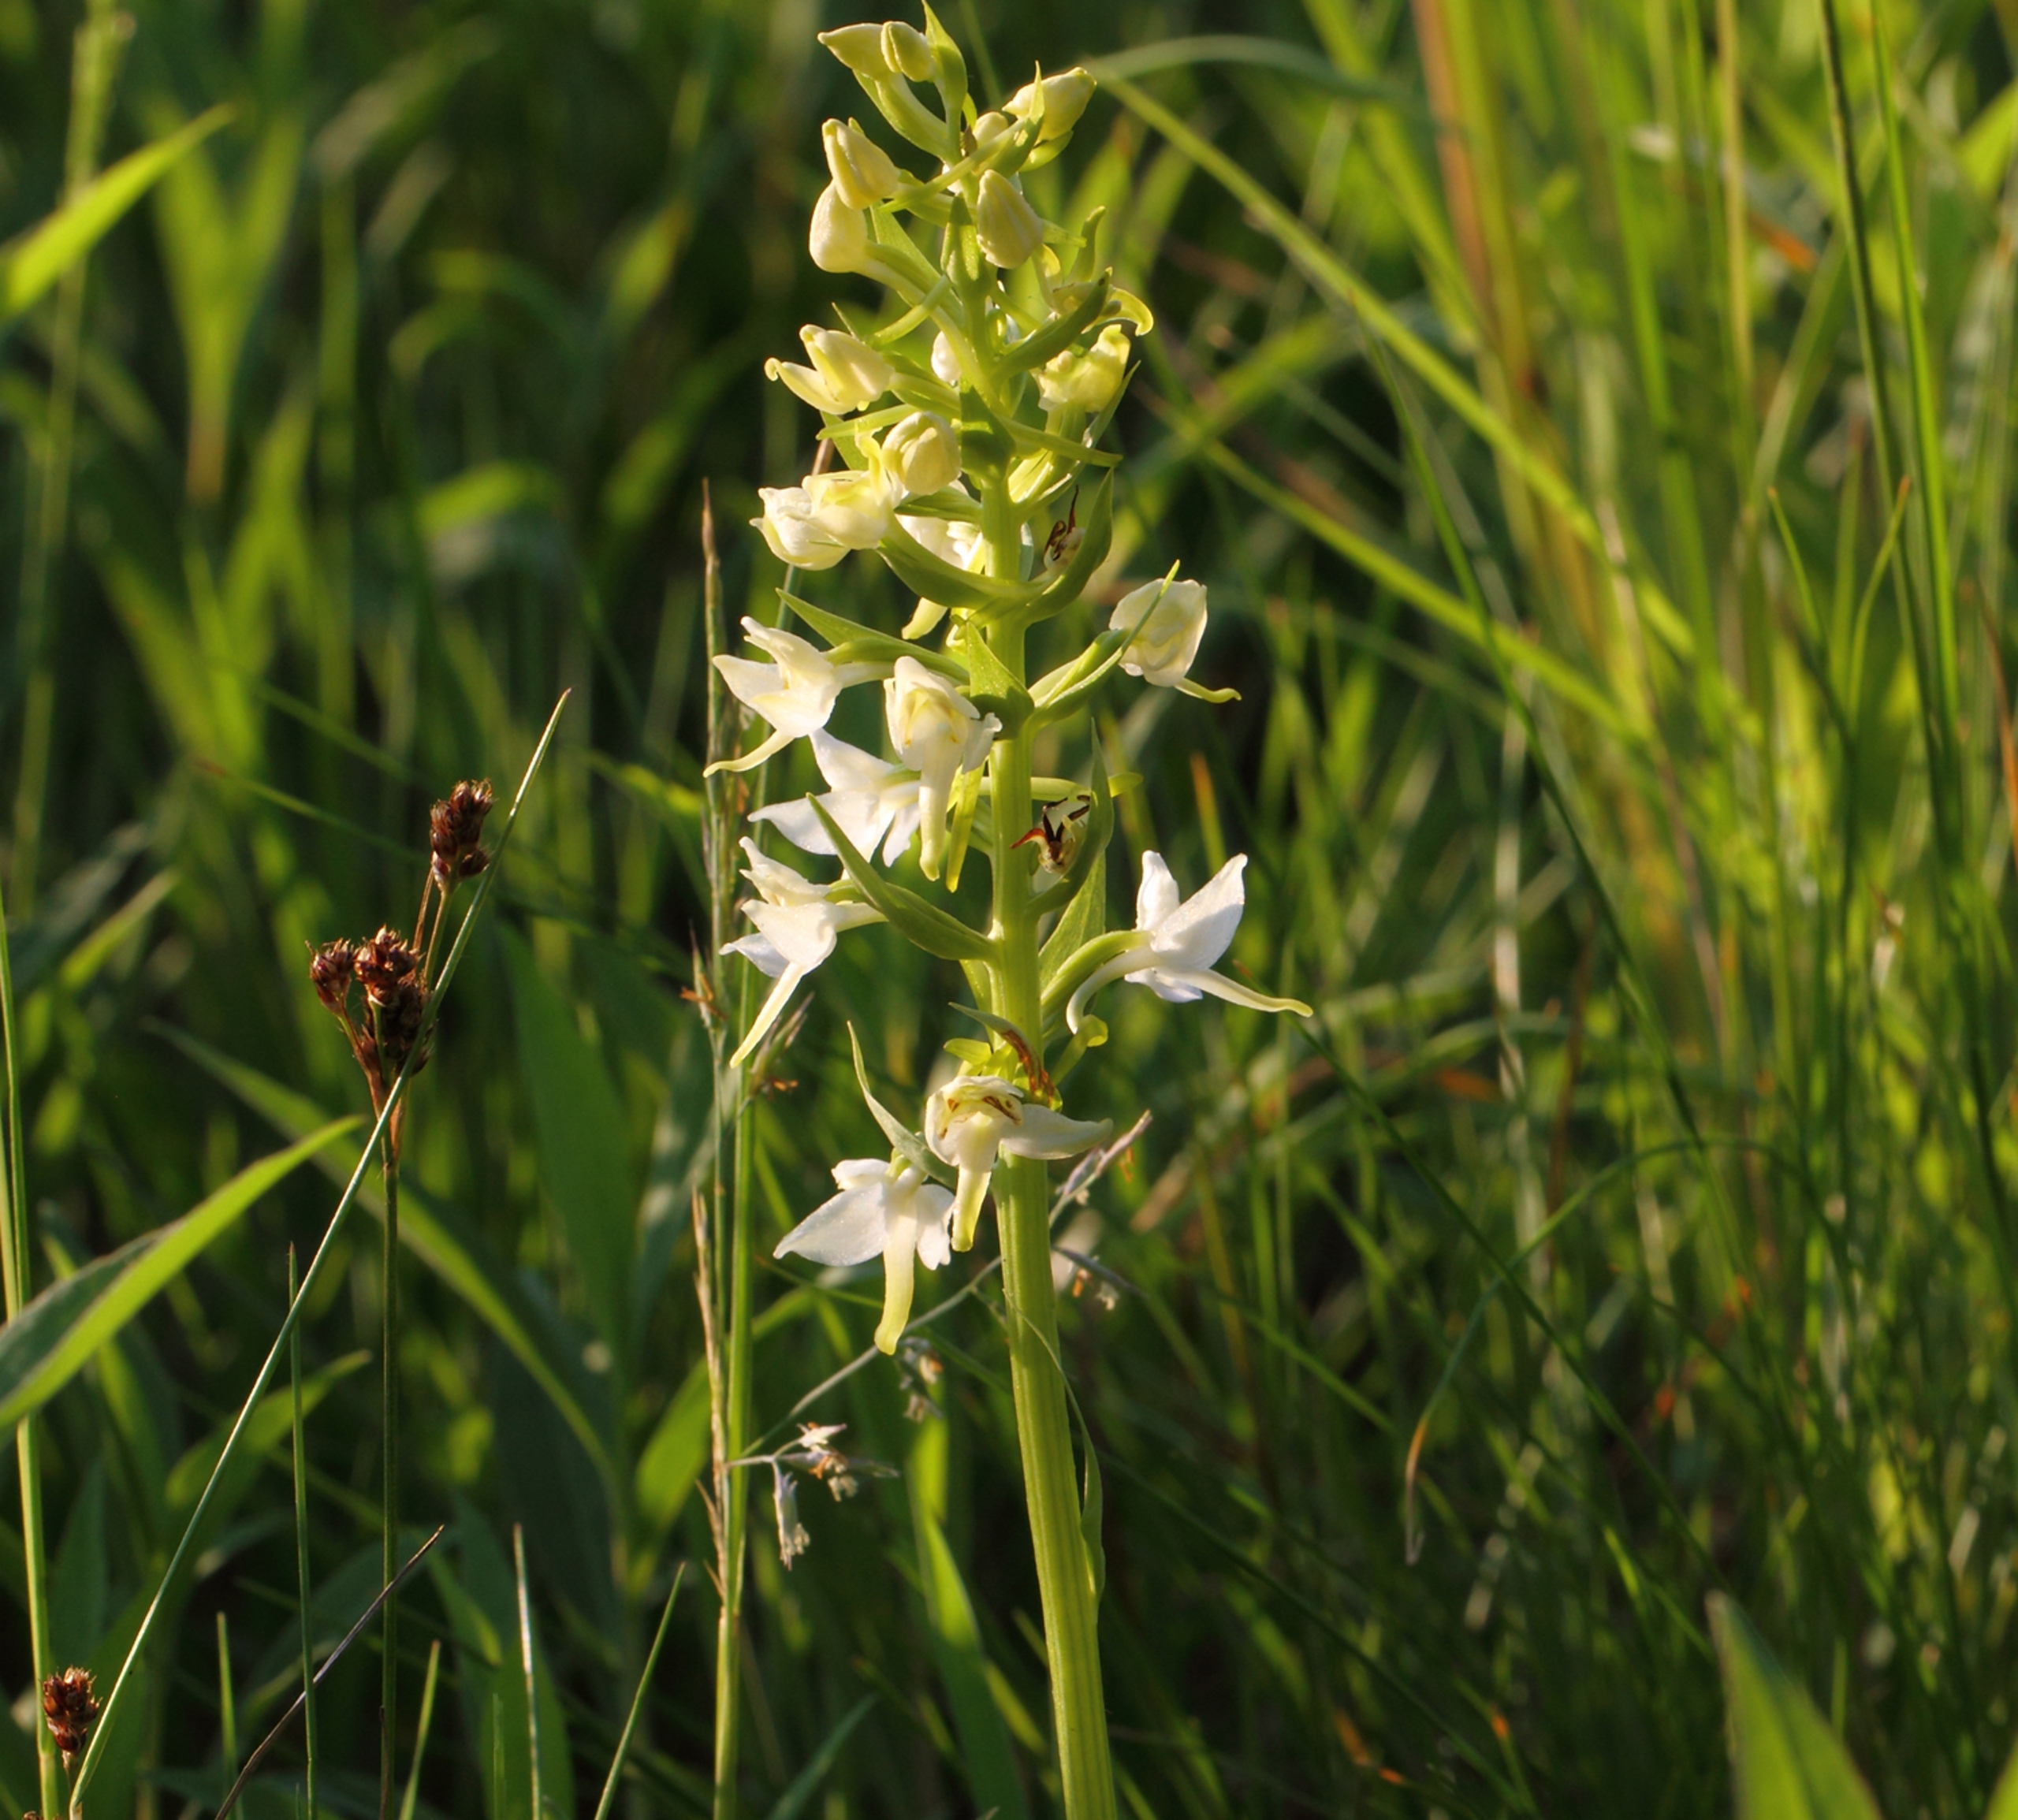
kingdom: Plantae
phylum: Tracheophyta
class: Liliopsida
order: Asparagales
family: Orchidaceae
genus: Platanthera
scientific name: Platanthera chlorantha
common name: Skov-gøgelilje
